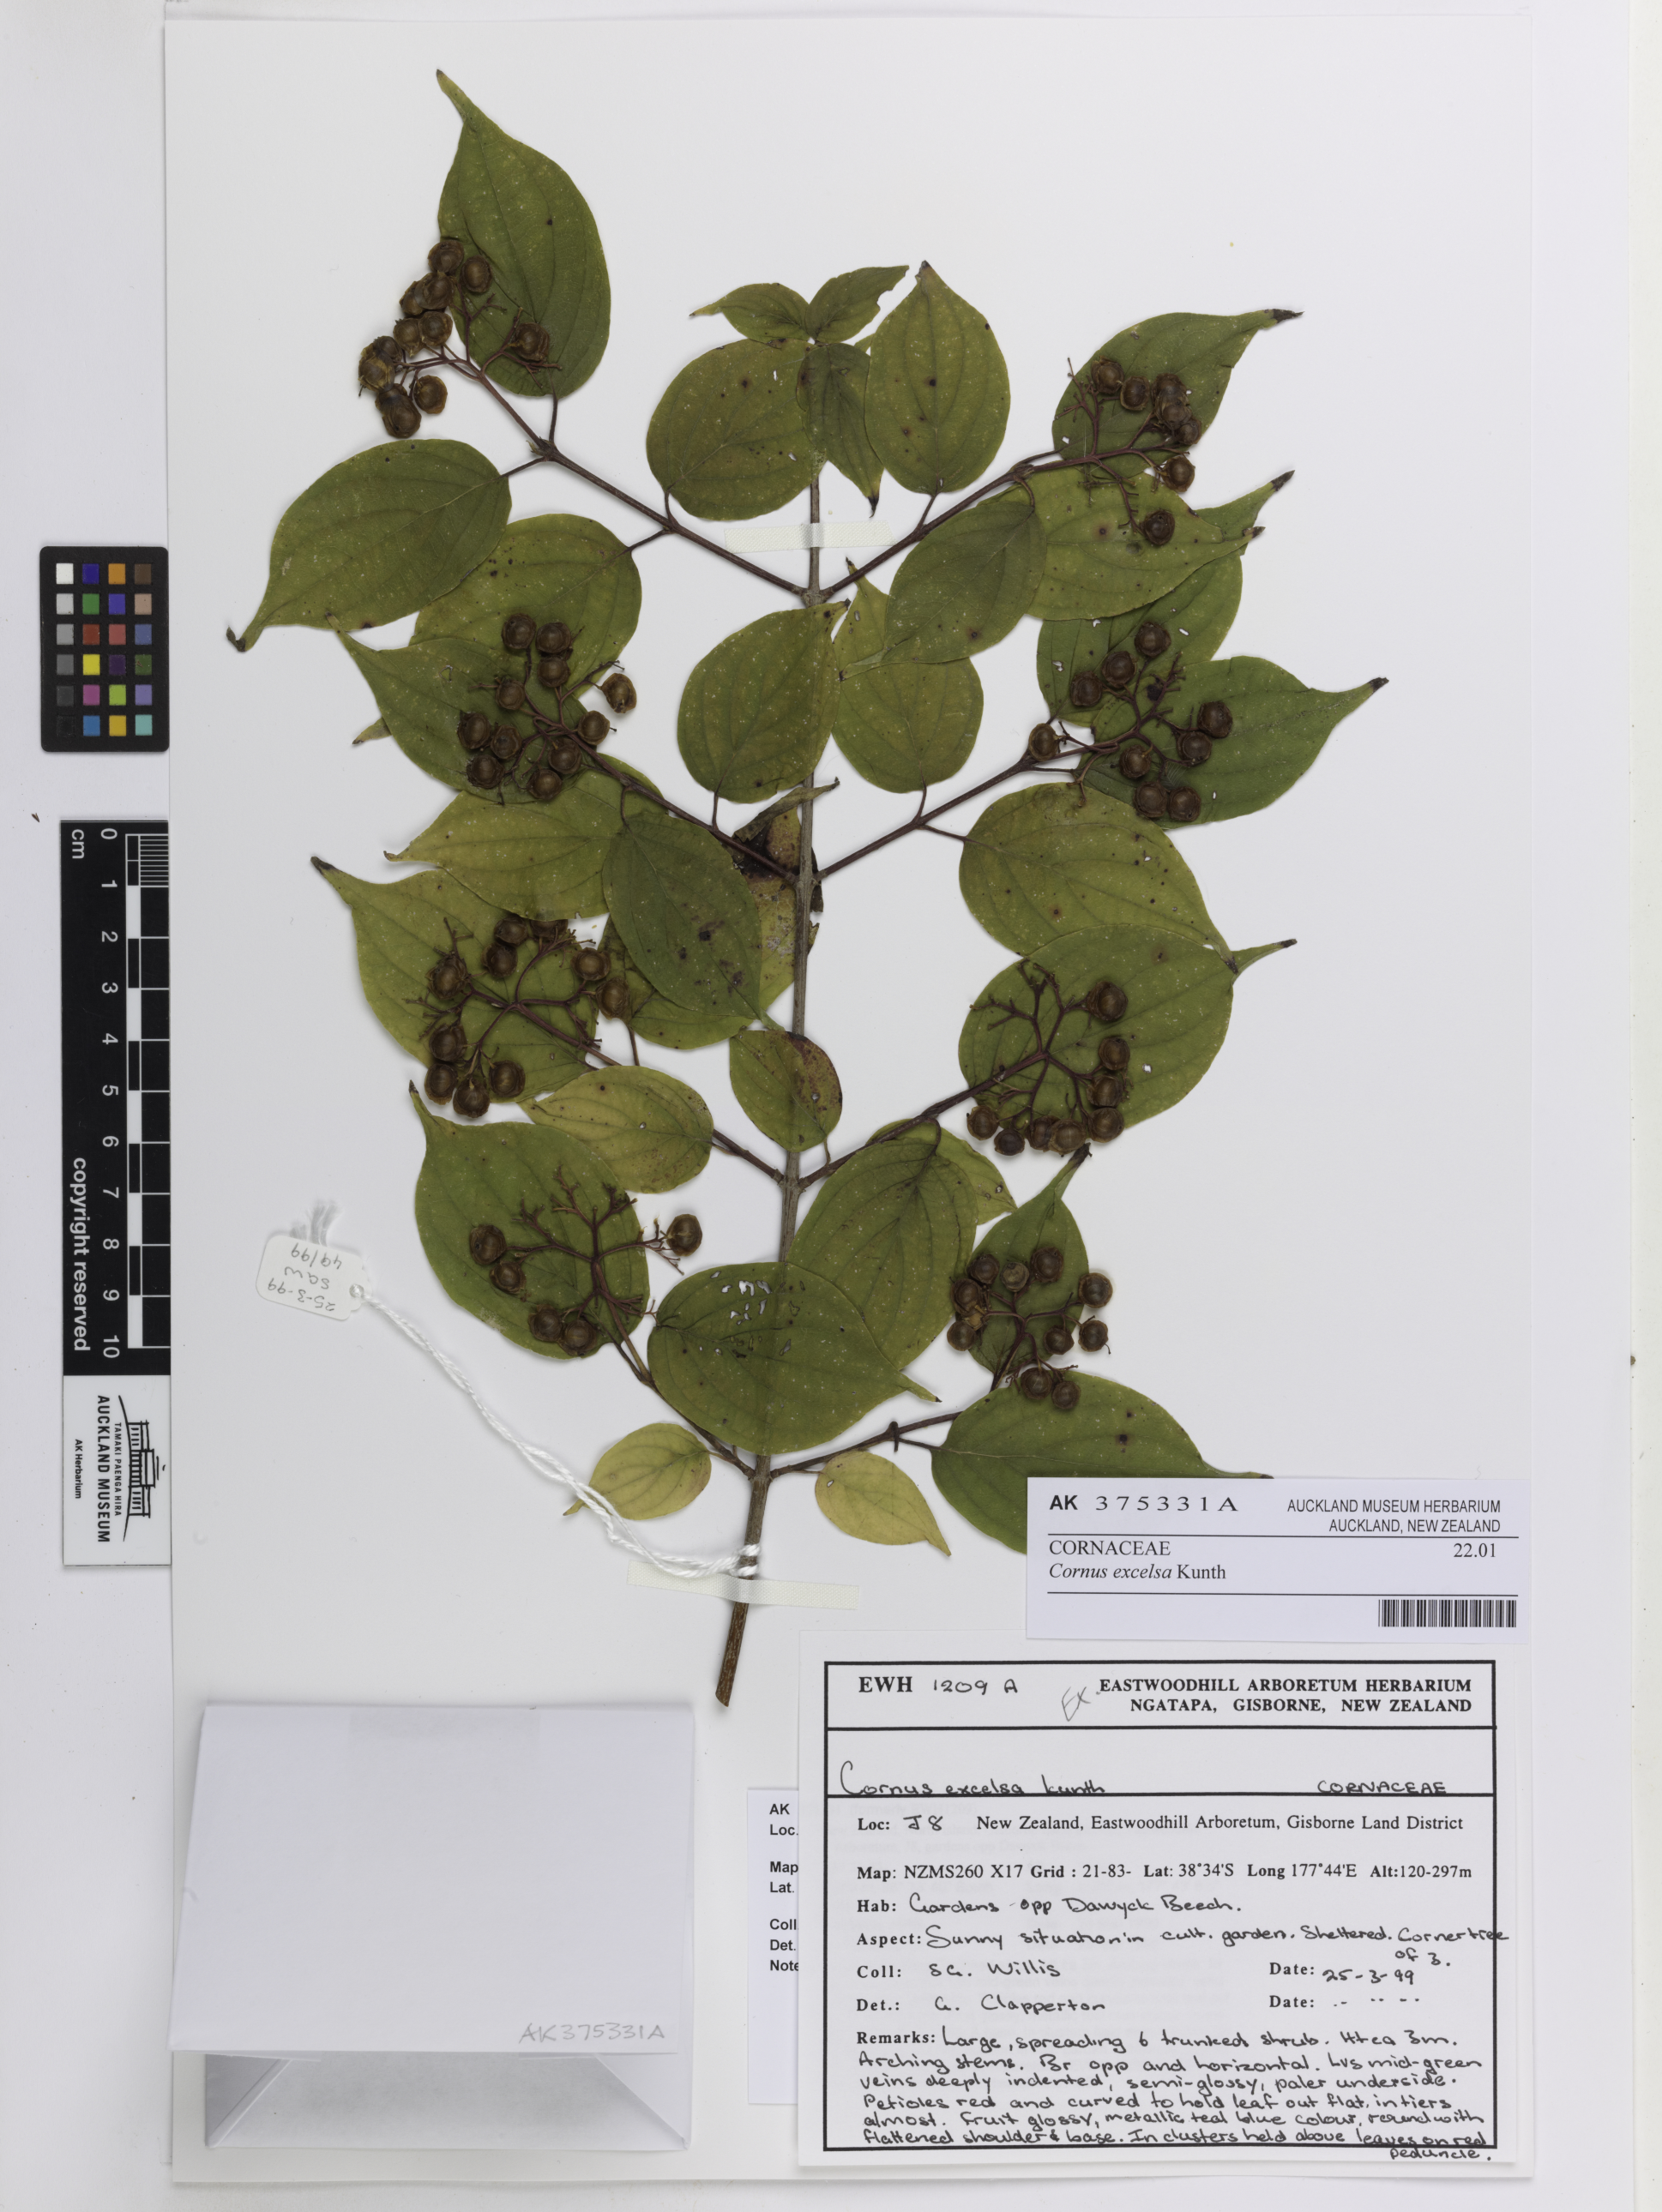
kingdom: Plantae
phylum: Tracheophyta
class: Magnoliopsida
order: Cornales
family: Cornaceae
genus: Cornus
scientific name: Cornus excelsa
